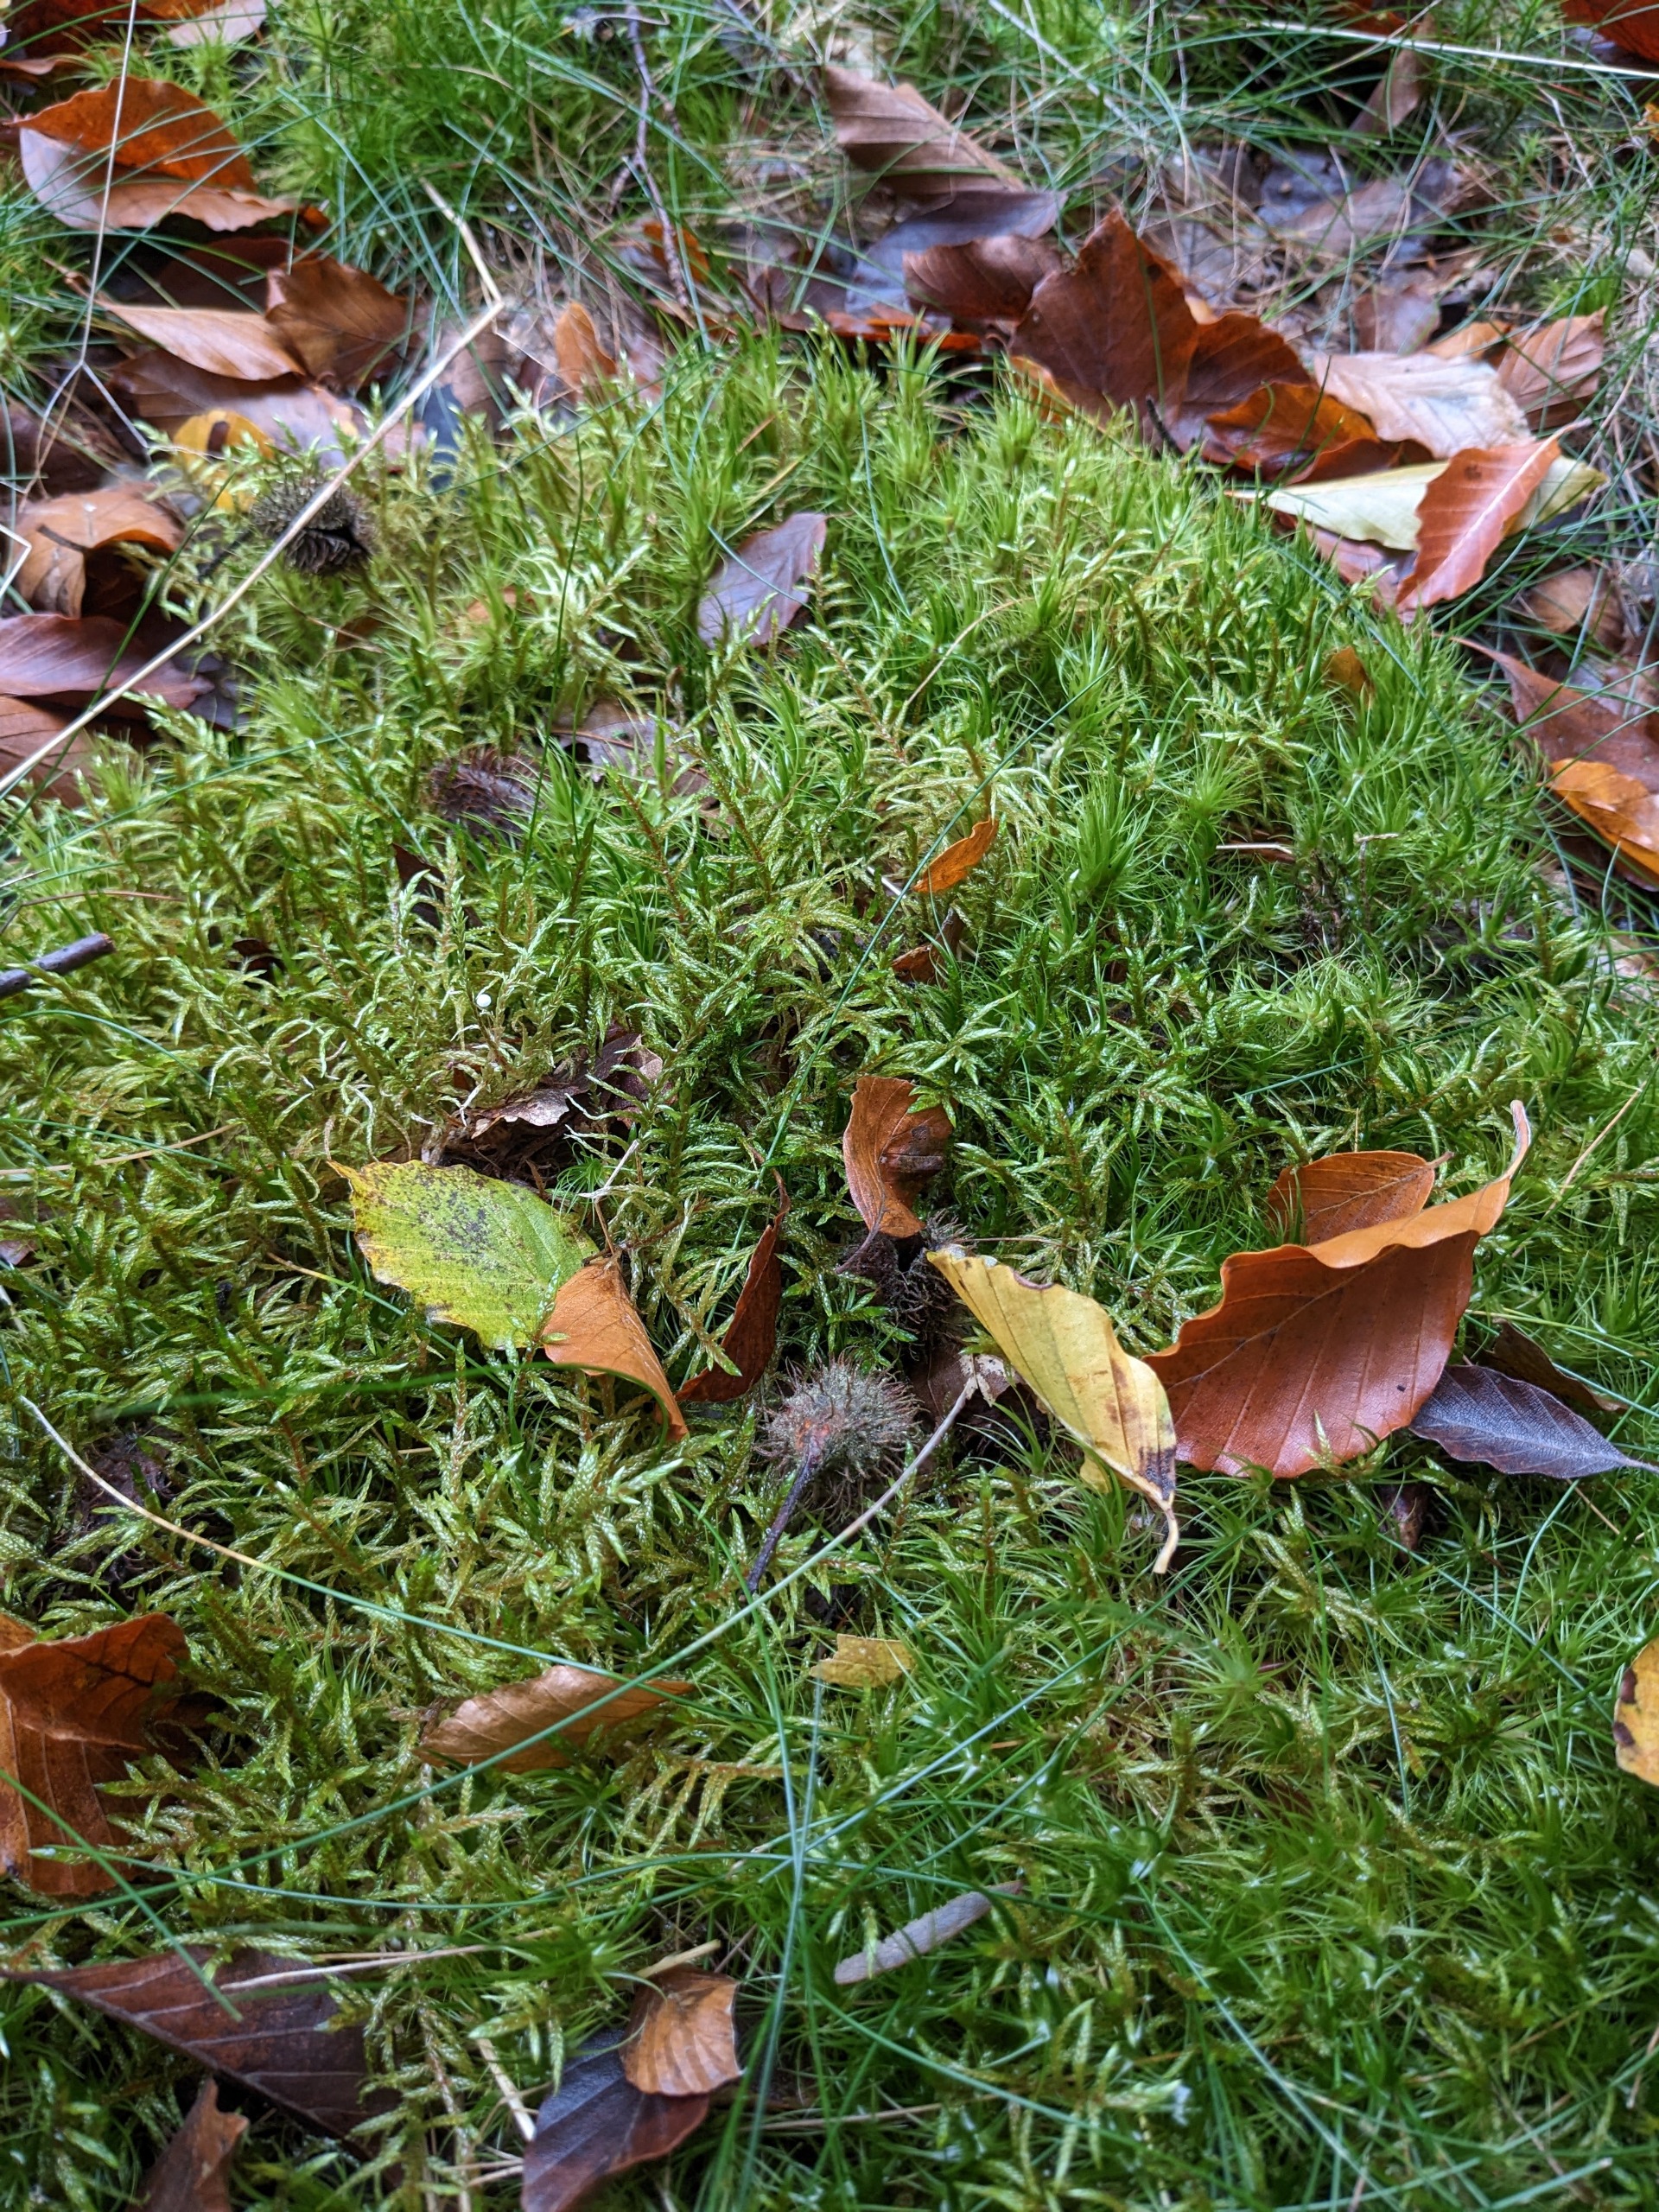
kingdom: Plantae
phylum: Bryophyta
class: Bryopsida
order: Hypnales
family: Hylocomiaceae
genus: Pleurozium
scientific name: Pleurozium schreberi
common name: Trind fyrremos
